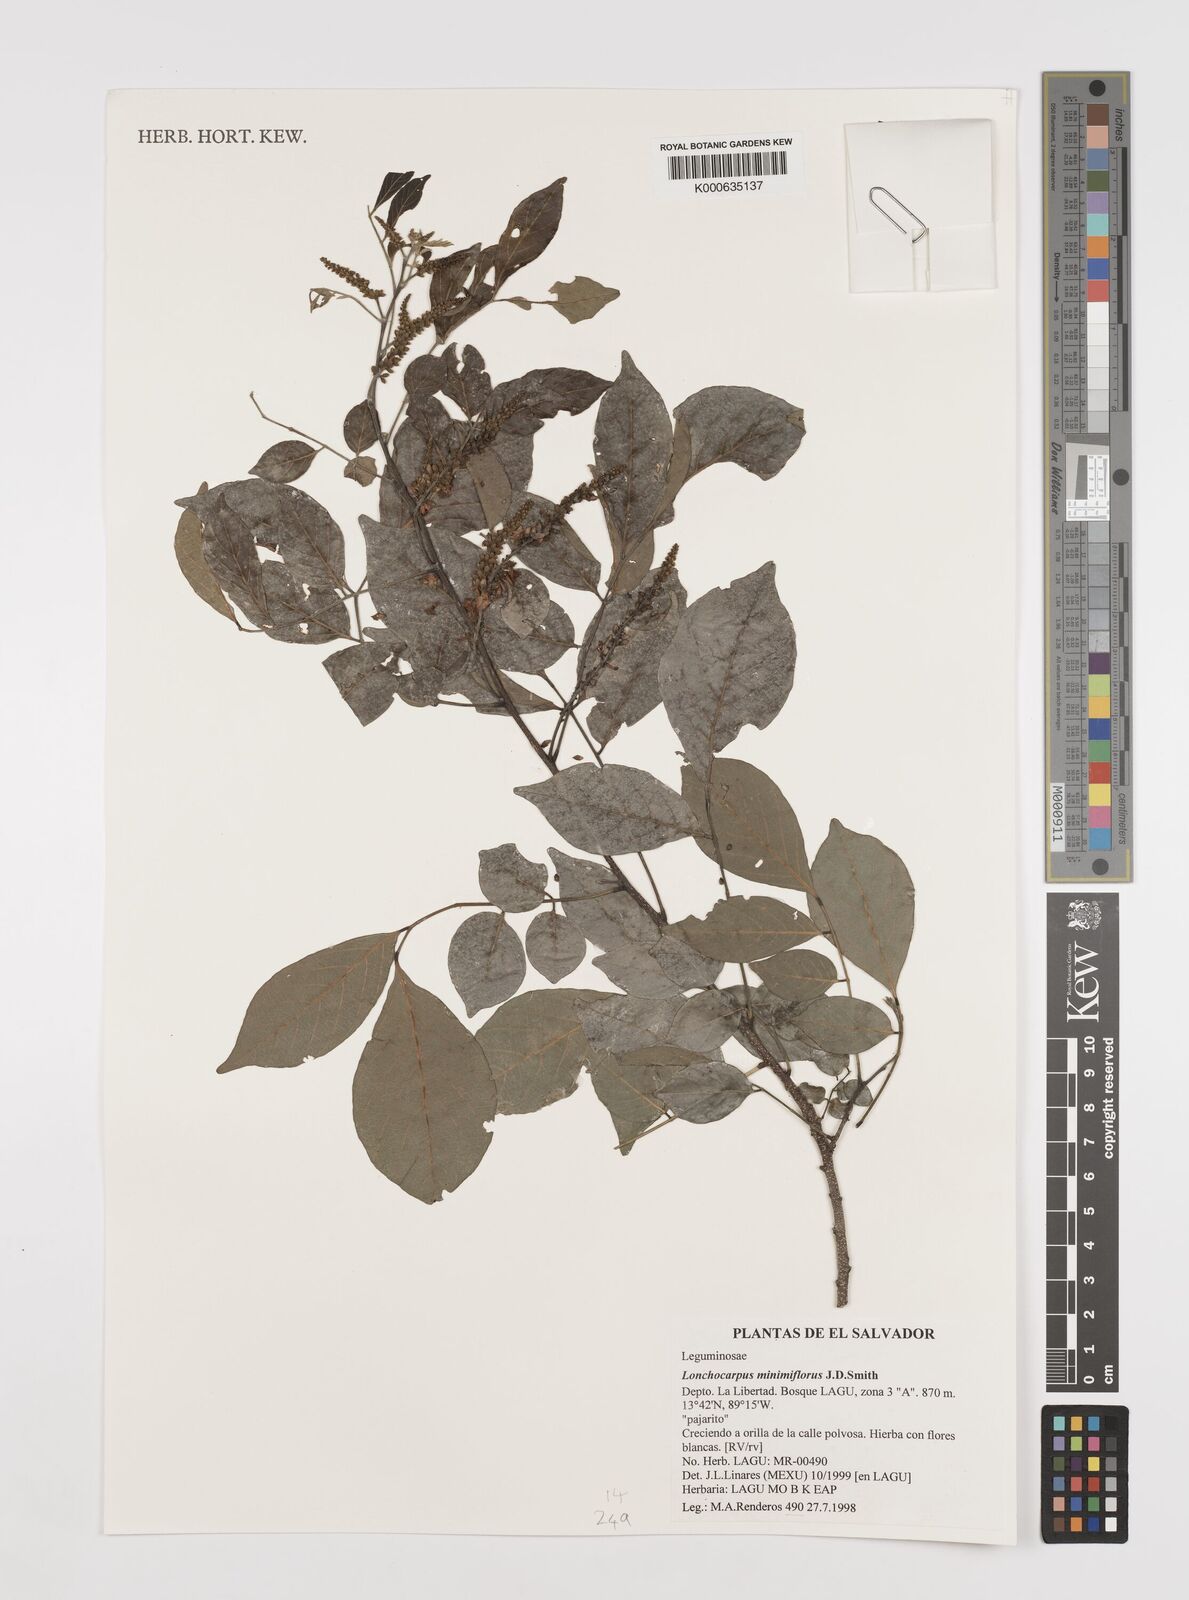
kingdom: Plantae
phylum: Tracheophyta
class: Magnoliopsida
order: Fabales
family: Fabaceae
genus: Lonchocarpus
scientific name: Lonchocarpus
